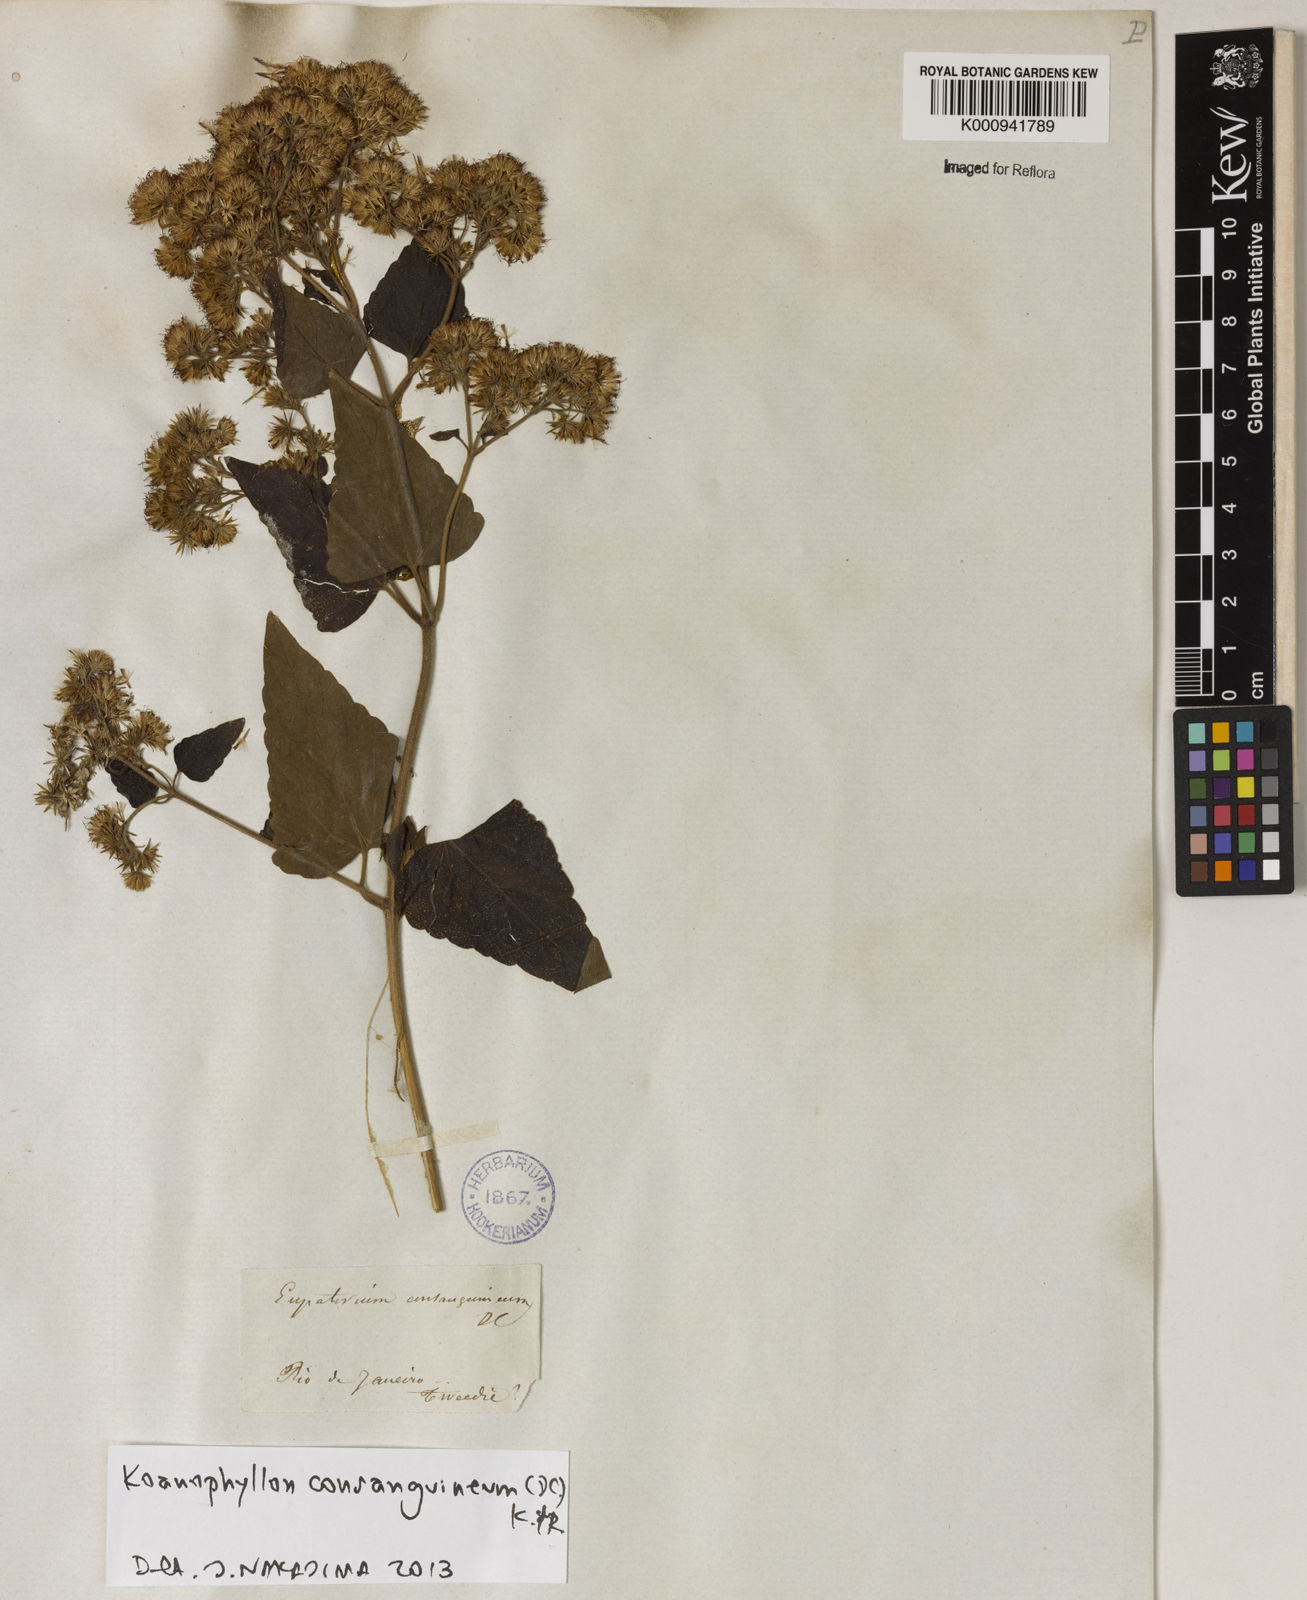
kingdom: Plantae
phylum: Tracheophyta
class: Magnoliopsida
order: Asterales
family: Asteraceae
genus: Koanophyllon
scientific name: Koanophyllon consanguineum
